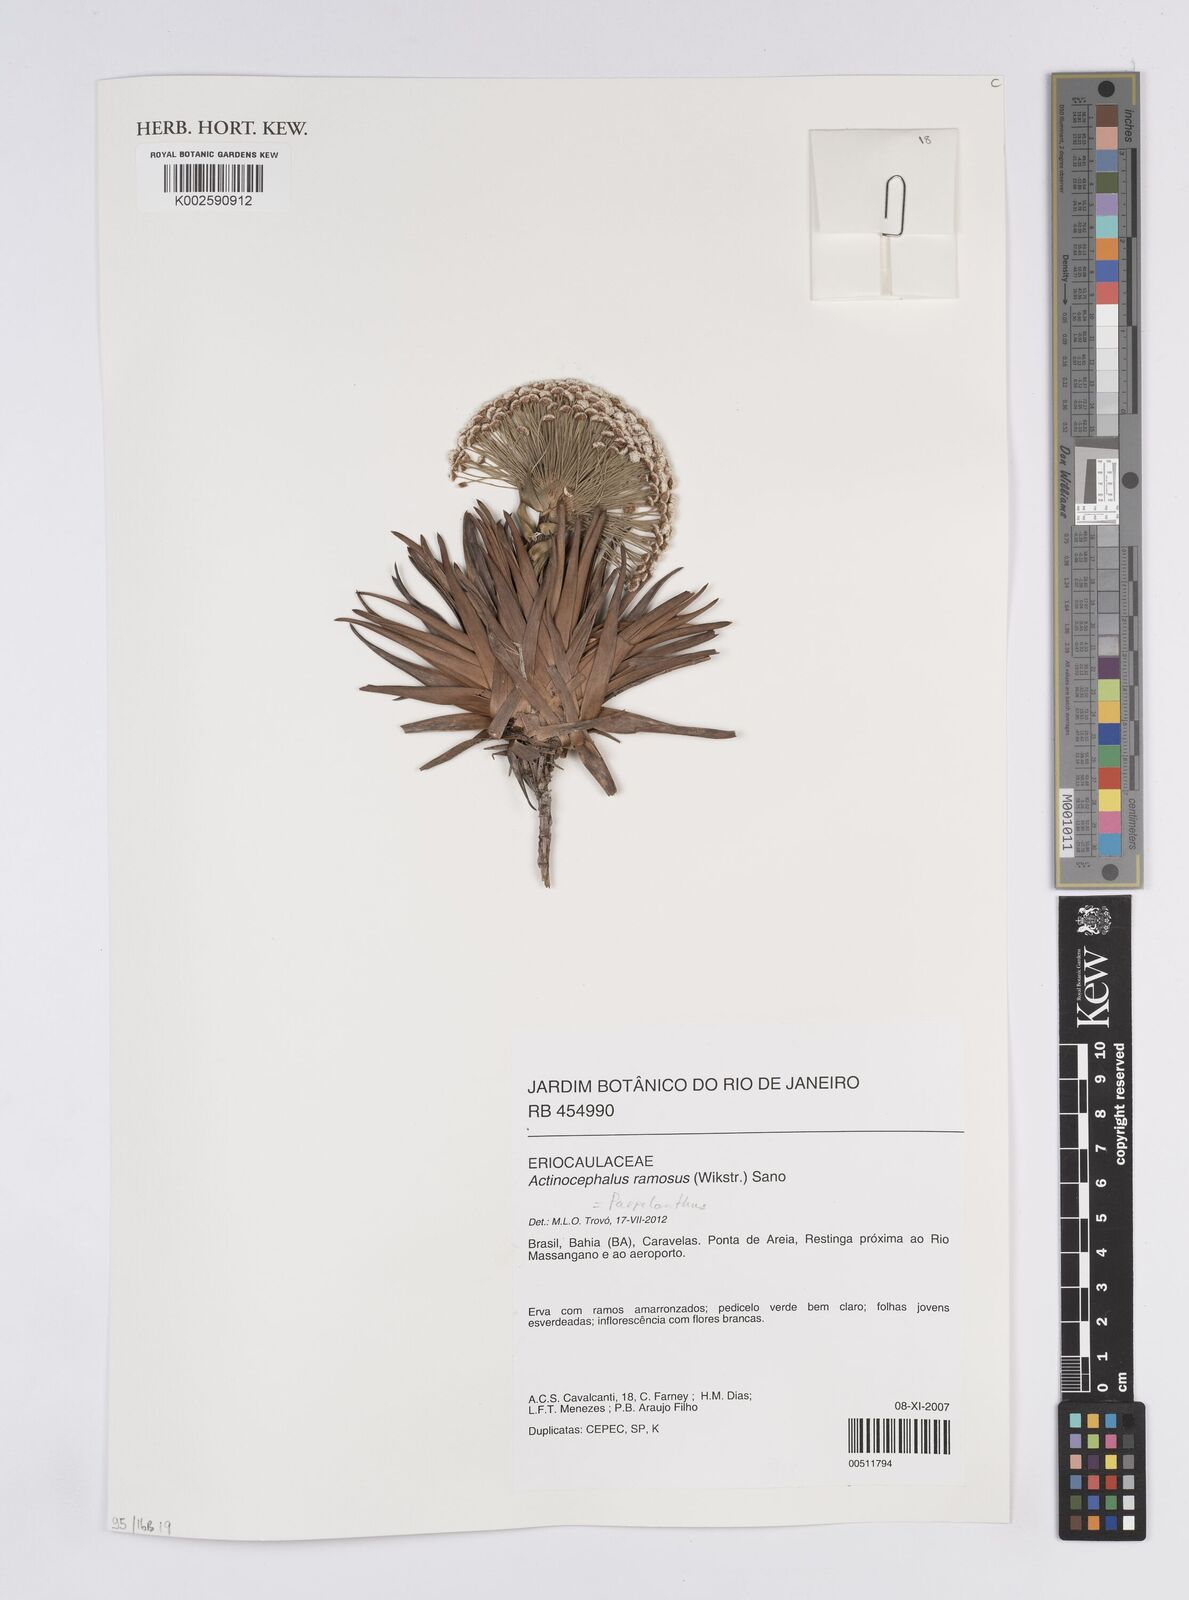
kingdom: Plantae
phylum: Tracheophyta
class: Liliopsida
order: Poales
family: Eriocaulaceae
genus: Paepalanthus
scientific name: Paepalanthus ramosus
